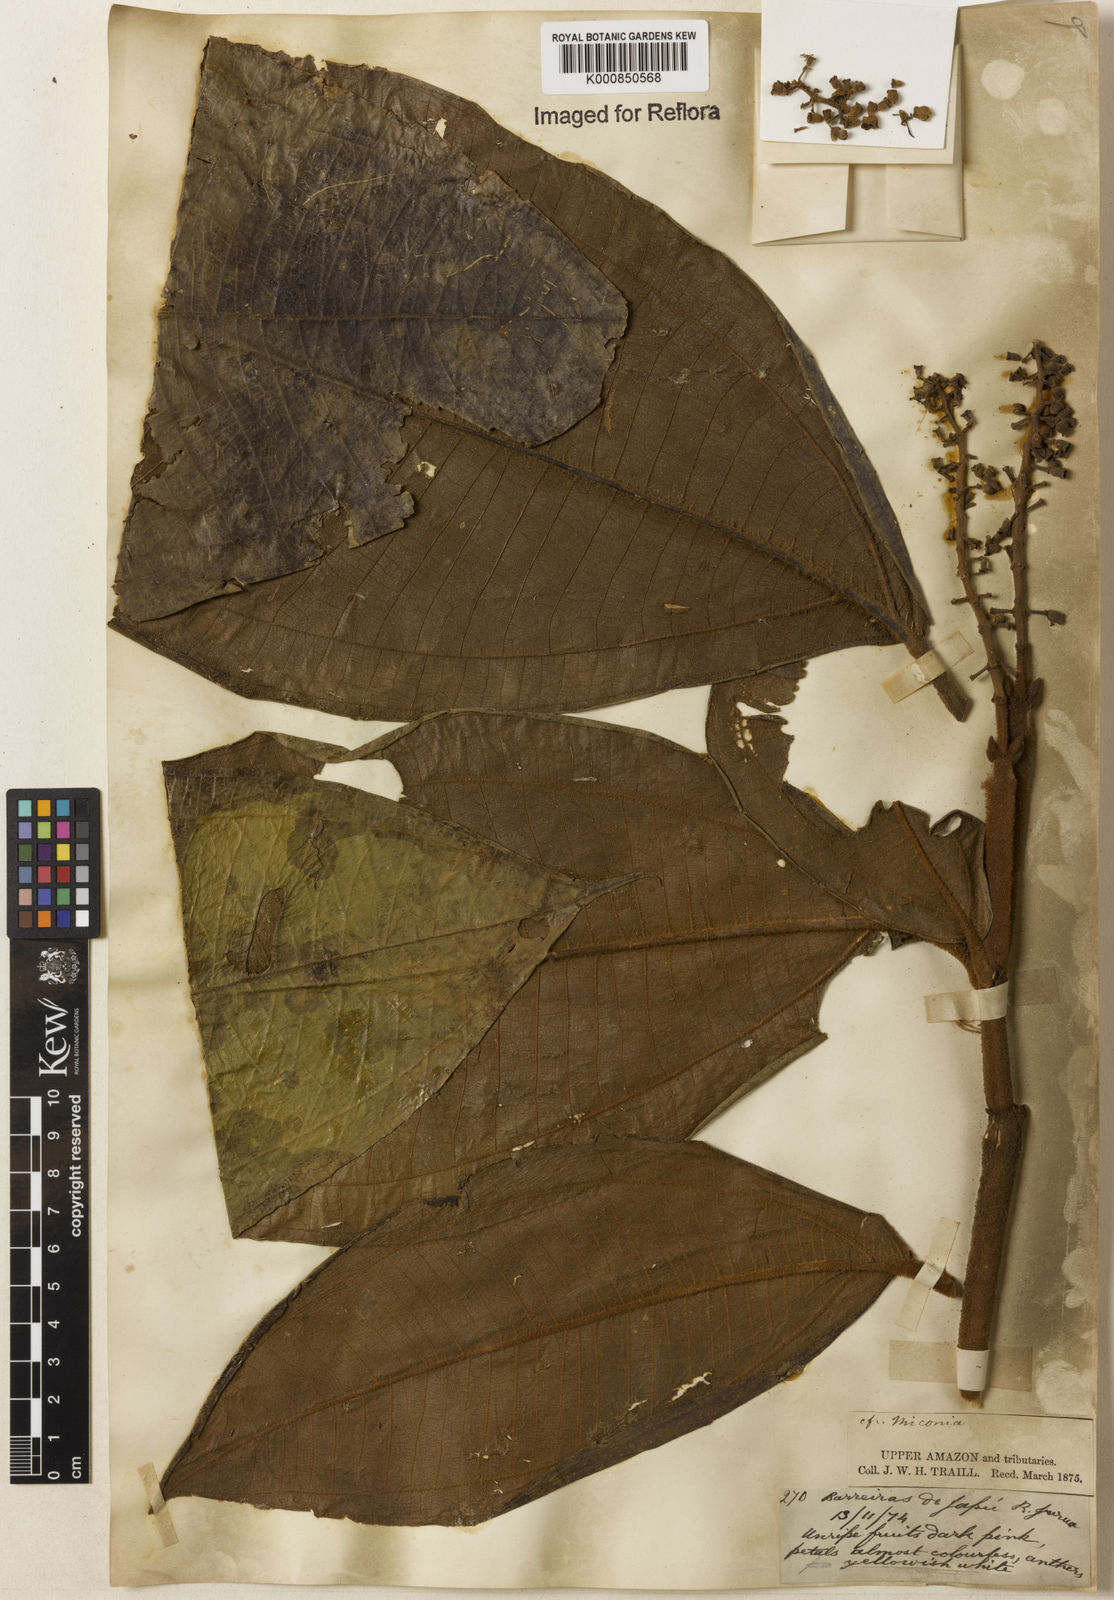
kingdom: Plantae
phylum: Tracheophyta
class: Magnoliopsida
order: Myrtales
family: Melastomataceae
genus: Miconia
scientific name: Miconia
